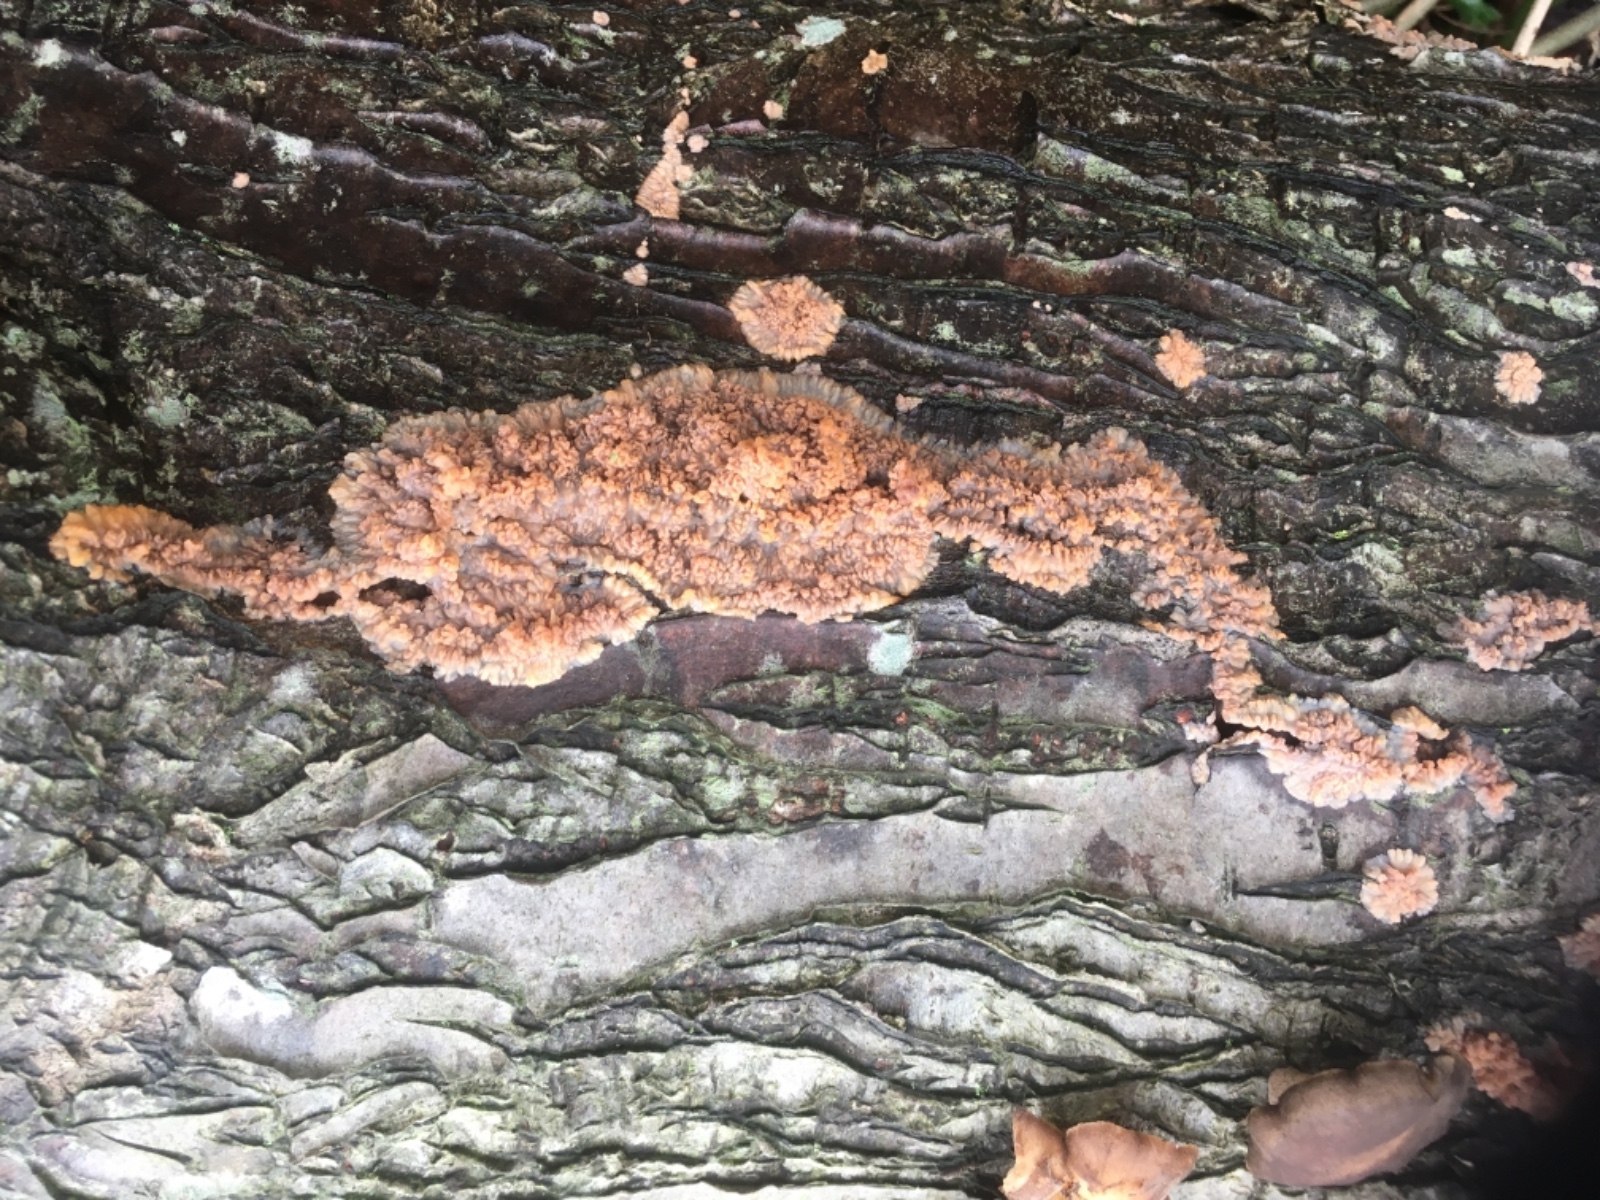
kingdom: Fungi
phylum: Basidiomycota
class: Agaricomycetes
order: Polyporales
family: Meruliaceae
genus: Phlebia
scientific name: Phlebia radiata
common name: stråle-åresvamp
